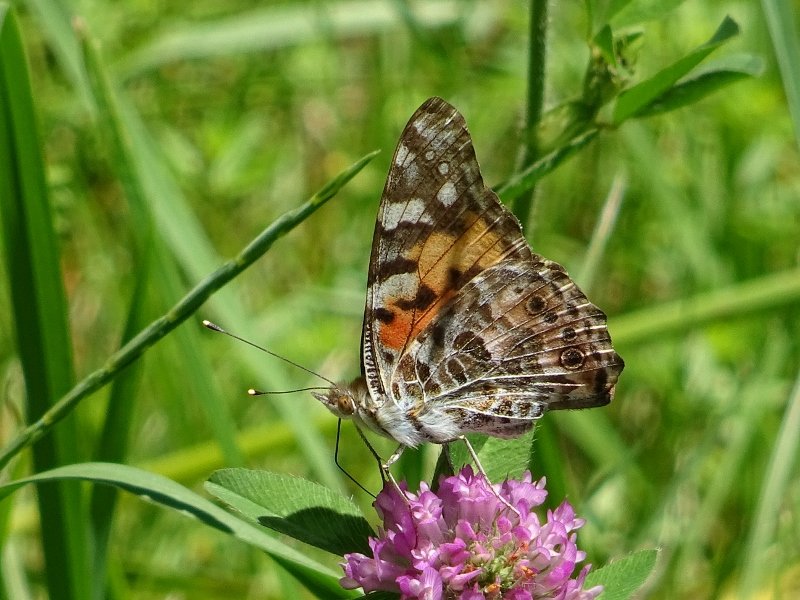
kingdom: Animalia
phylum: Arthropoda
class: Insecta
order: Lepidoptera
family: Nymphalidae
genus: Vanessa
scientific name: Vanessa cardui
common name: Painted Lady
